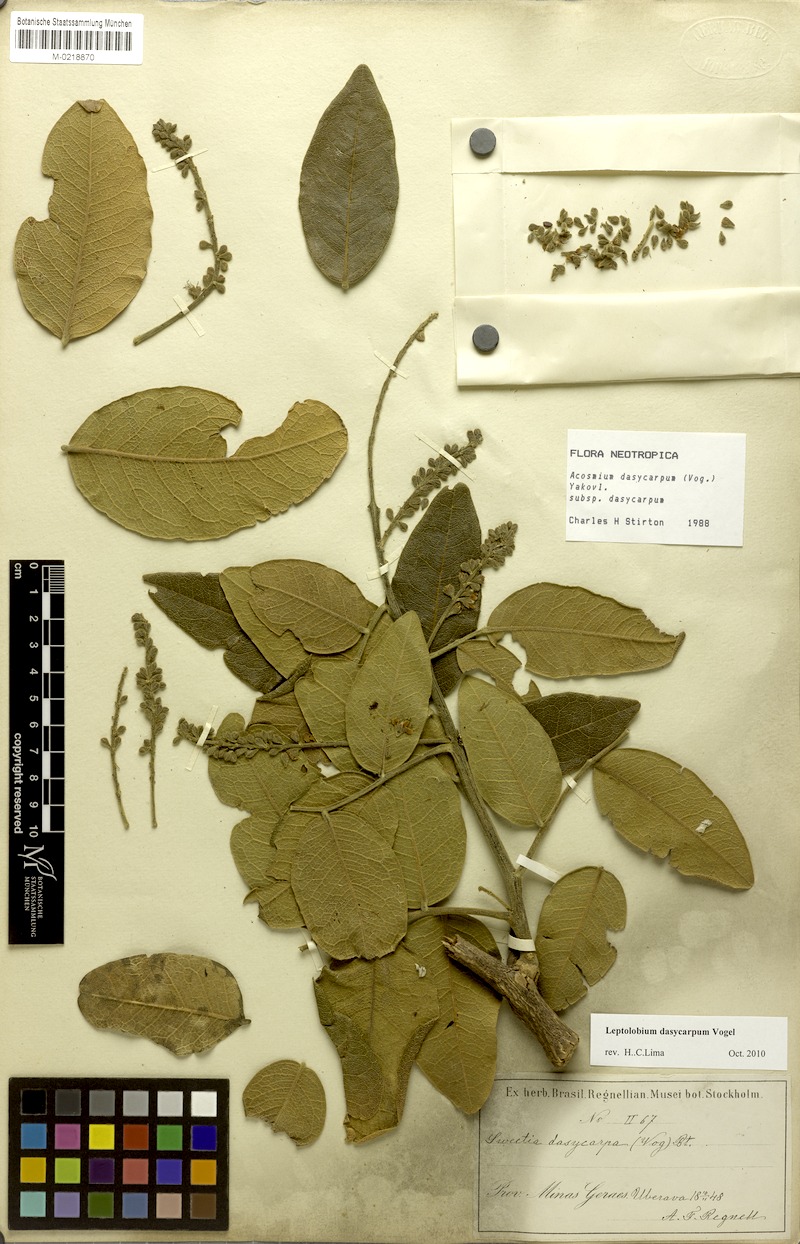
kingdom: Plantae
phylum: Tracheophyta
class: Magnoliopsida
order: Fabales
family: Fabaceae
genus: Leptolobium
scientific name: Leptolobium dasycarpum
